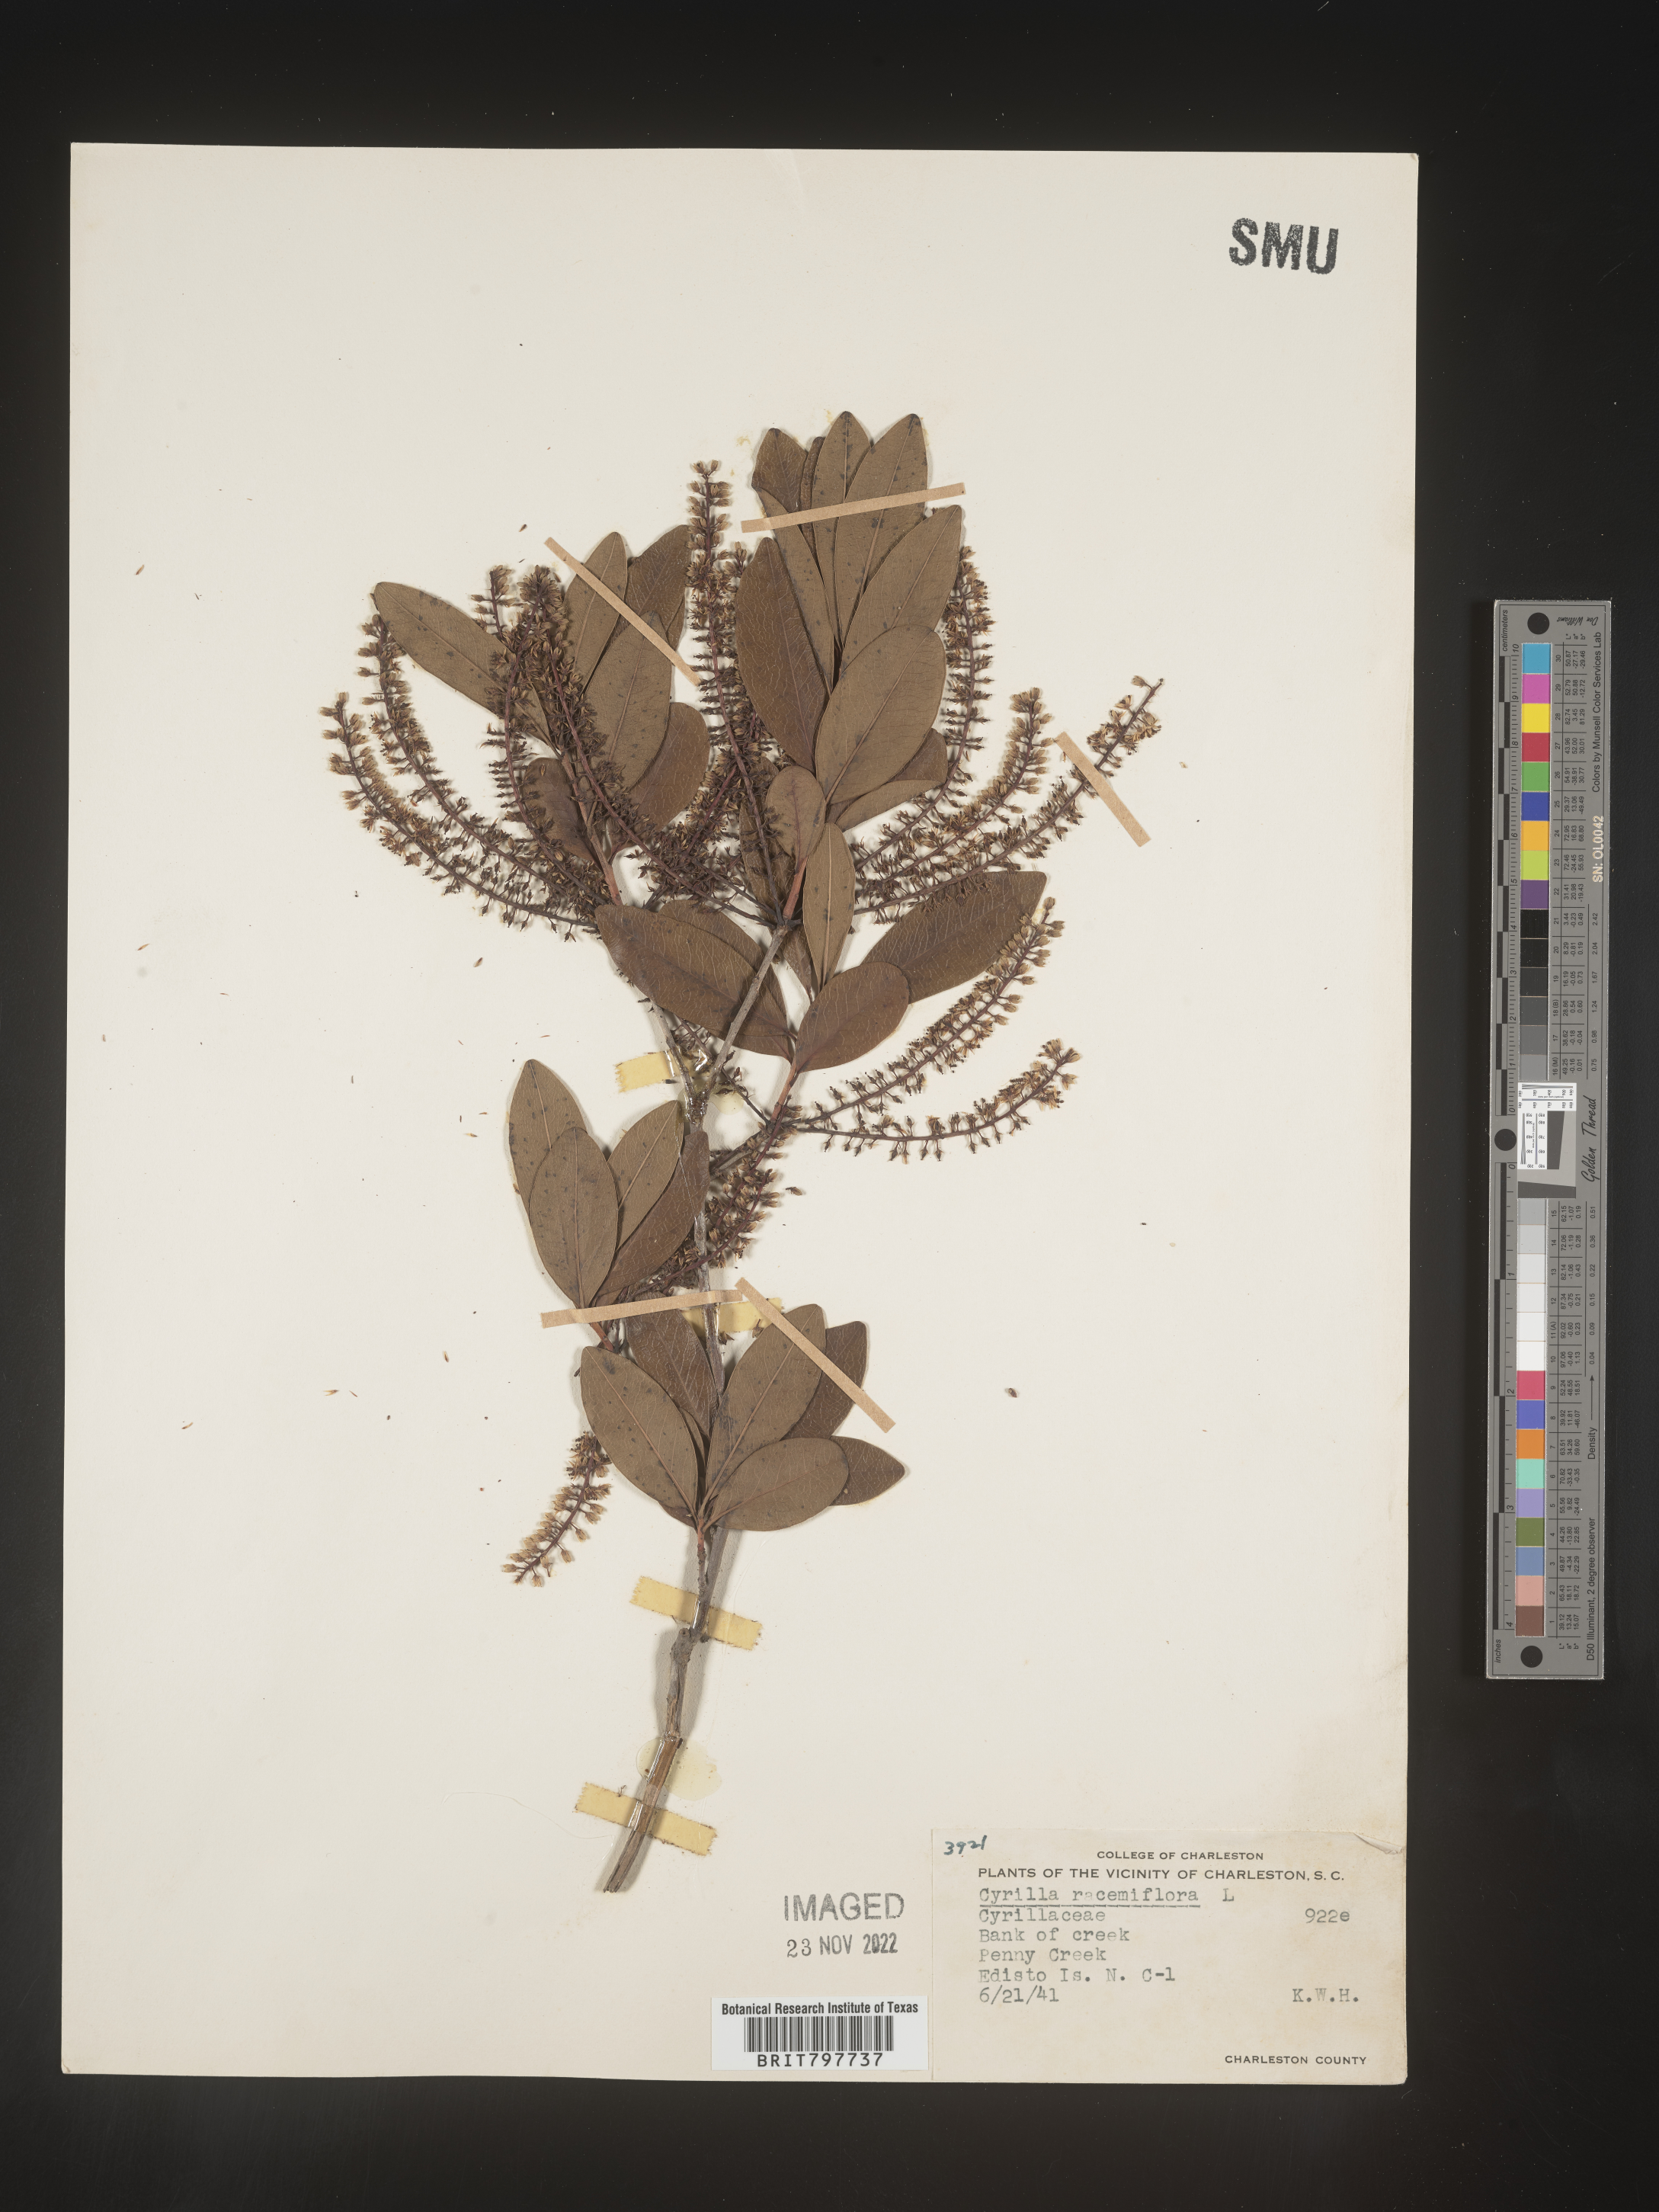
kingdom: Plantae
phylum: Tracheophyta
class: Magnoliopsida
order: Ericales
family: Cyrillaceae
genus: Cyrilla
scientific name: Cyrilla racemiflora
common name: Black titi
